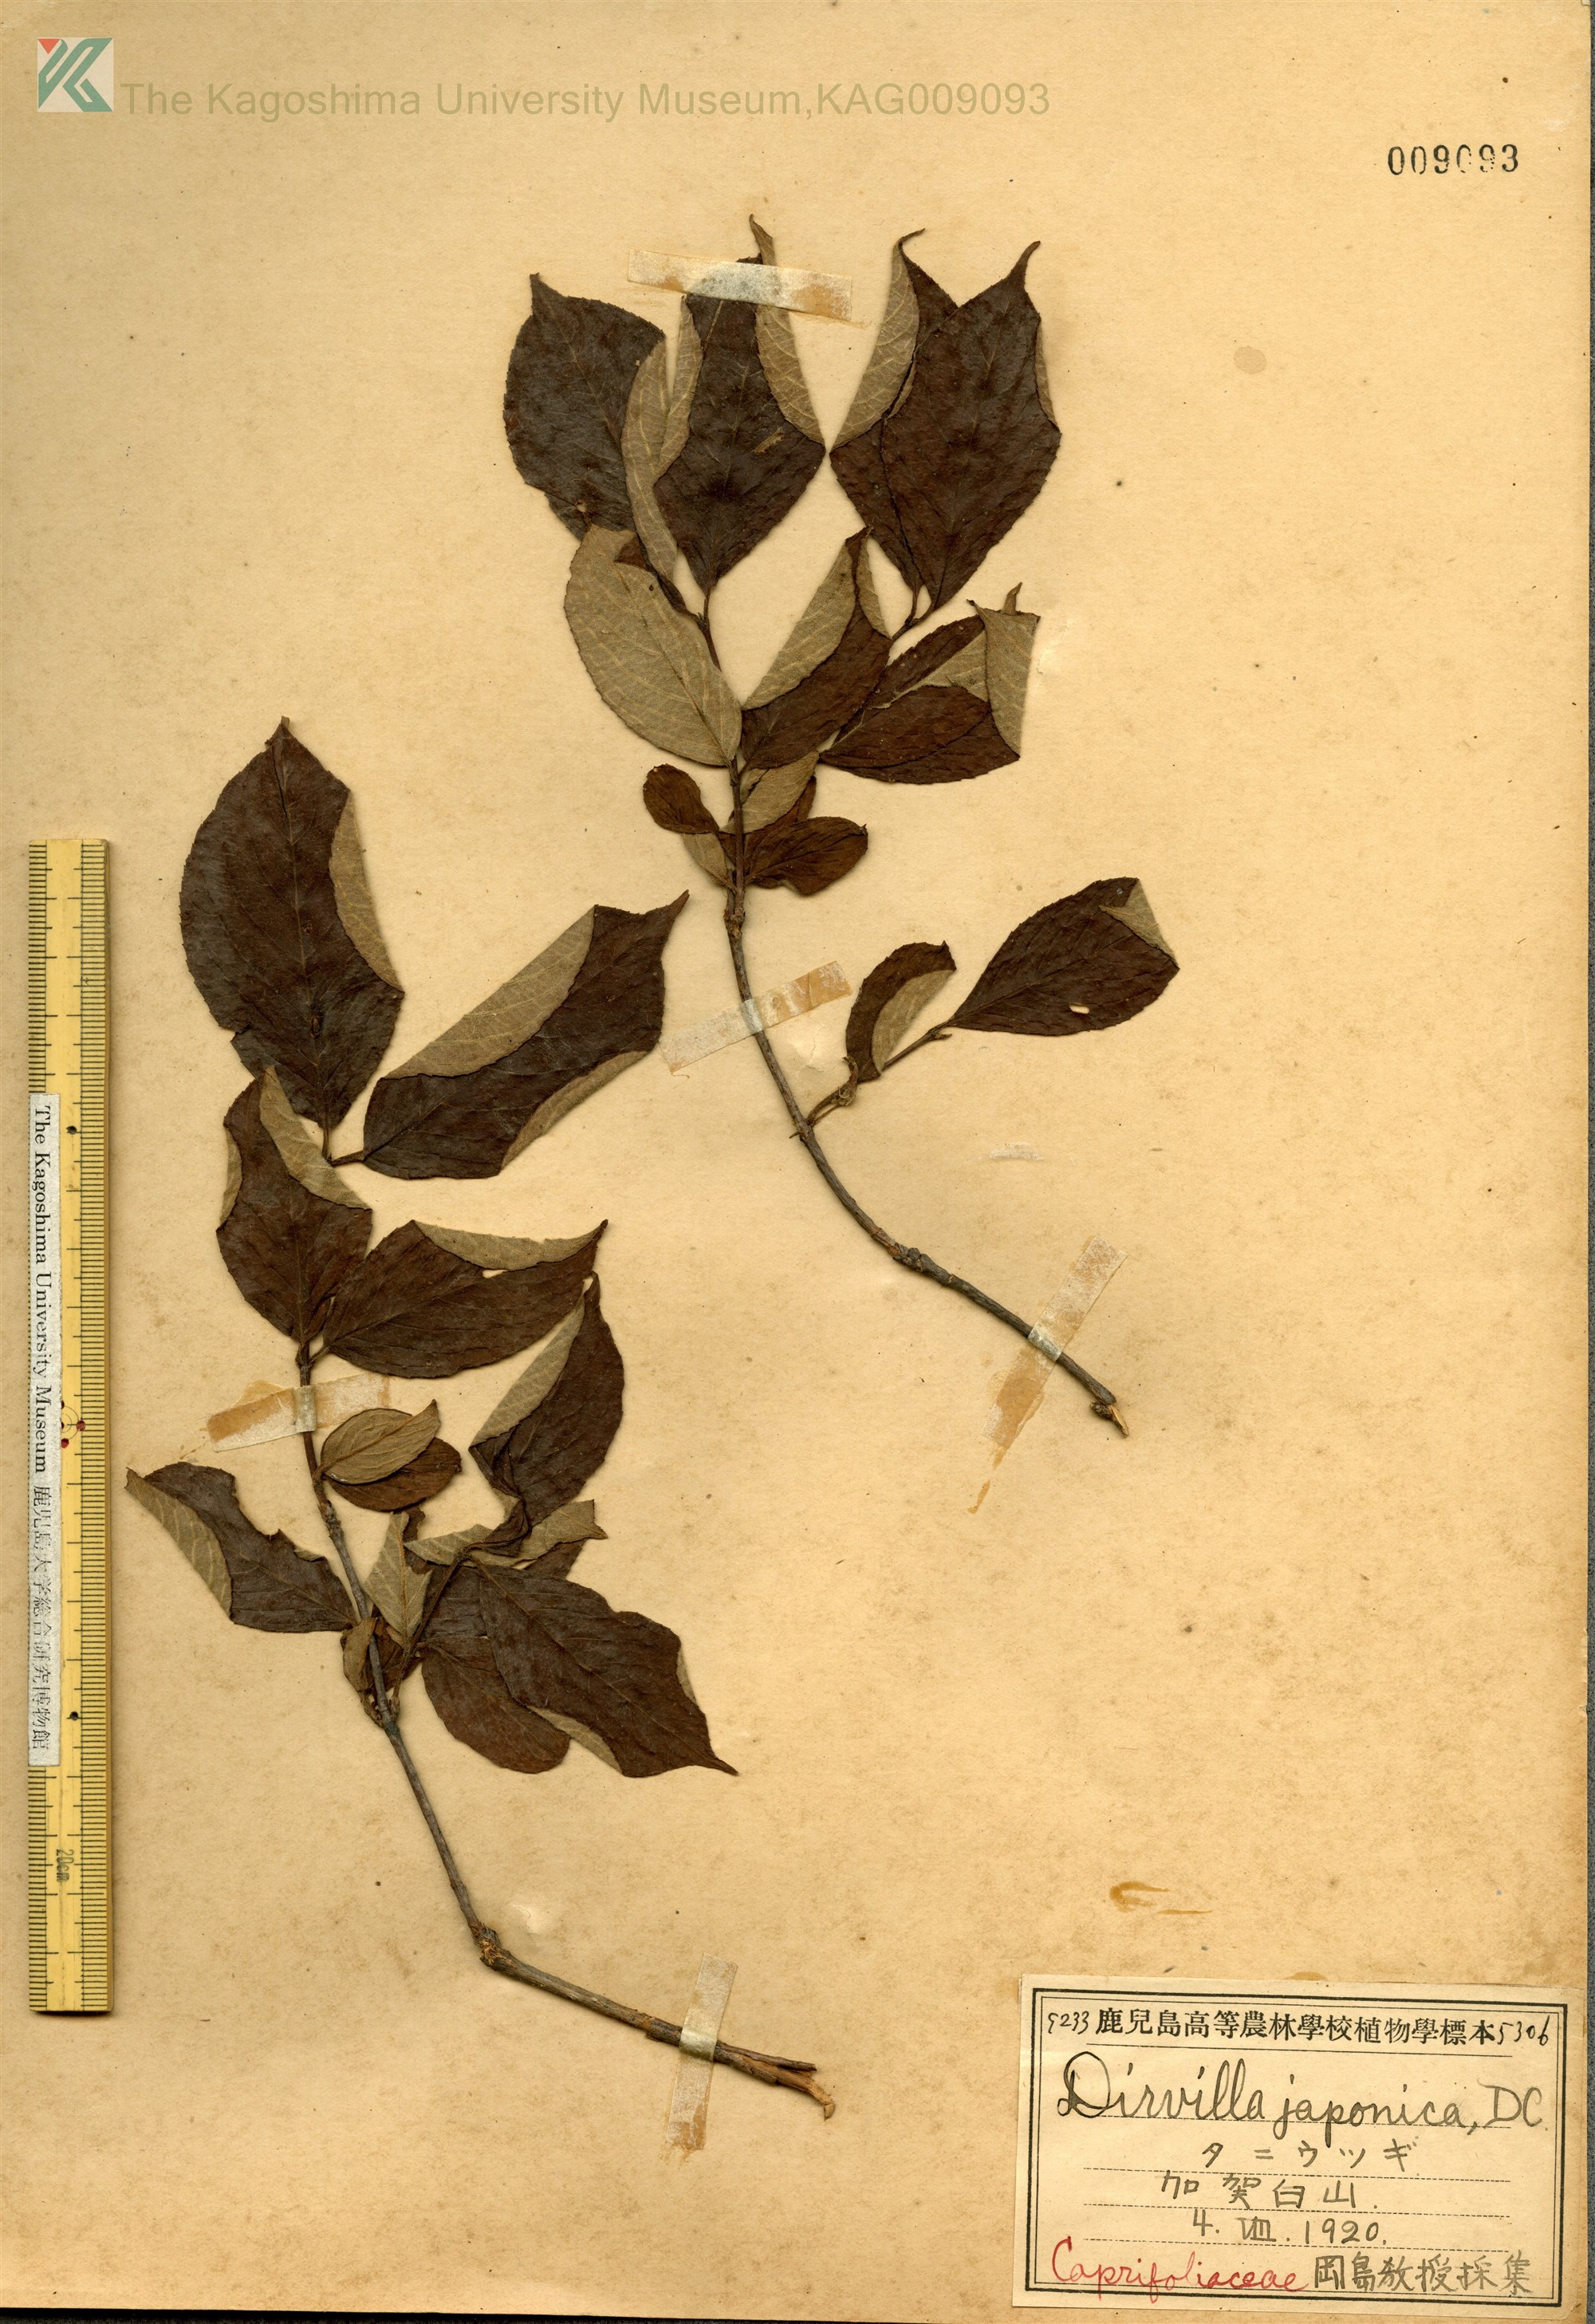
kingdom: Plantae
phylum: Tracheophyta
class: Magnoliopsida
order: Dipsacales
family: Caprifoliaceae
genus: Weigela
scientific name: Weigela hortensis
